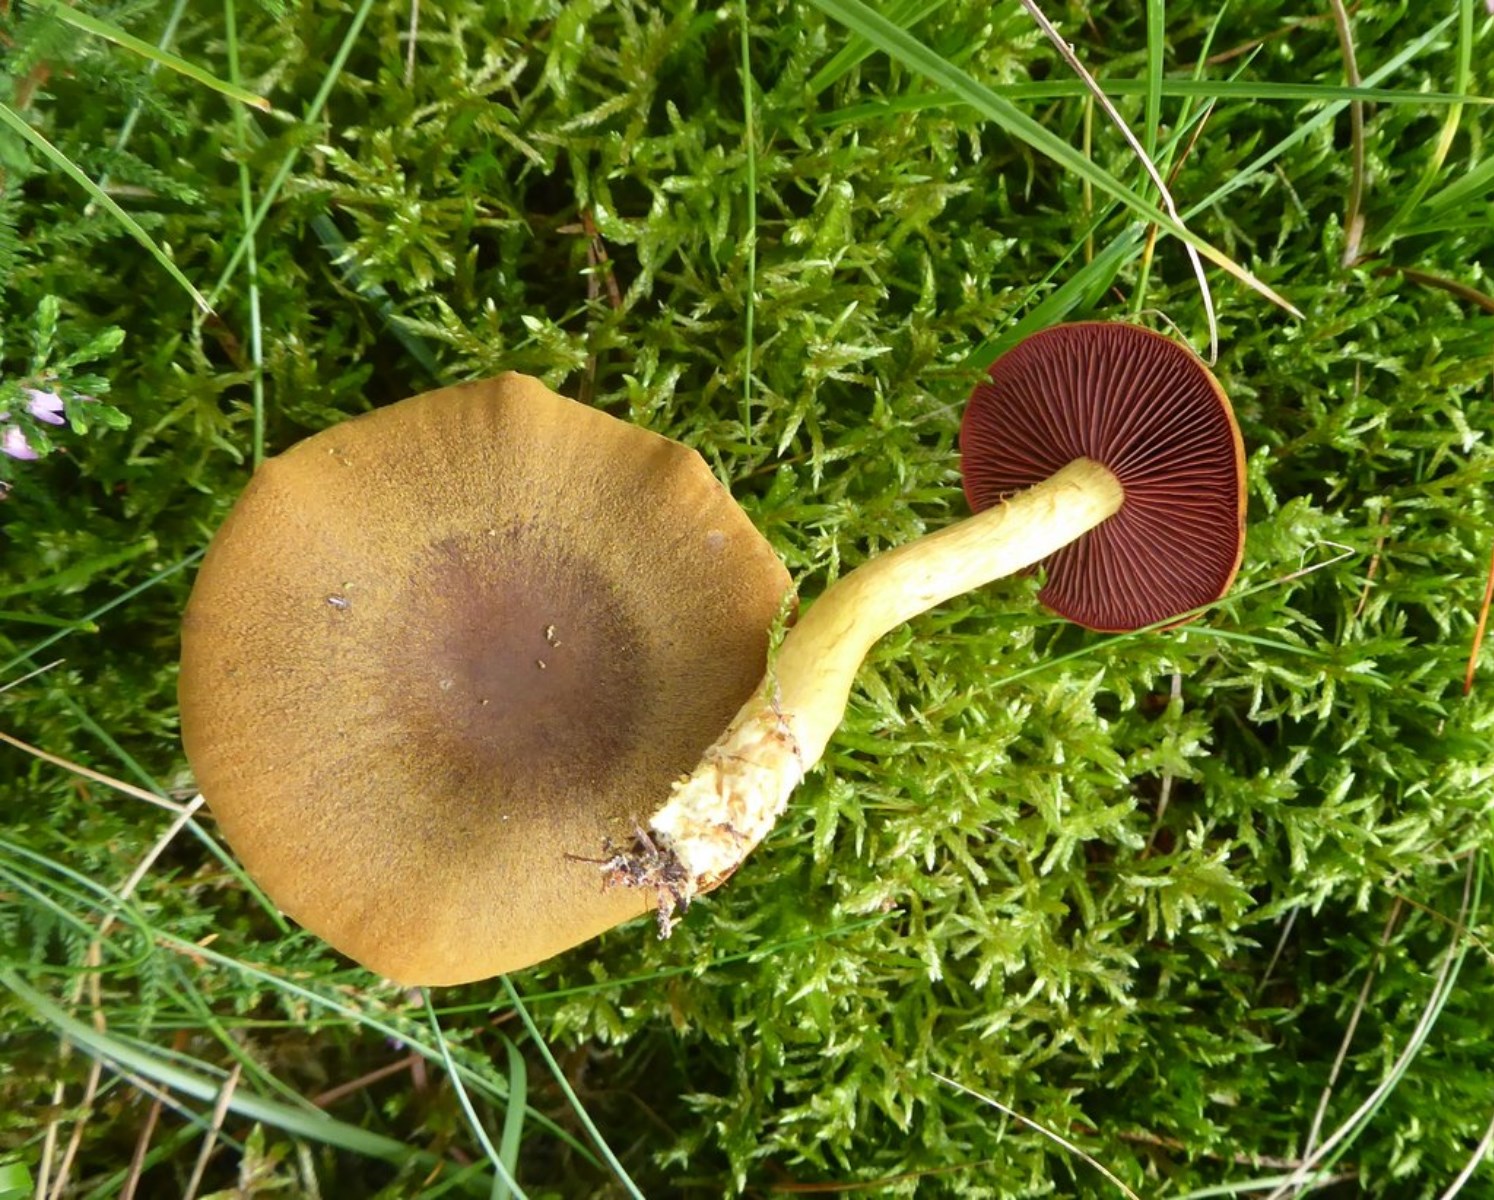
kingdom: Fungi
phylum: Basidiomycota
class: Agaricomycetes
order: Agaricales
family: Cortinariaceae
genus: Cortinarius
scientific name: Cortinarius
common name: cinnoberbladet slørhat
